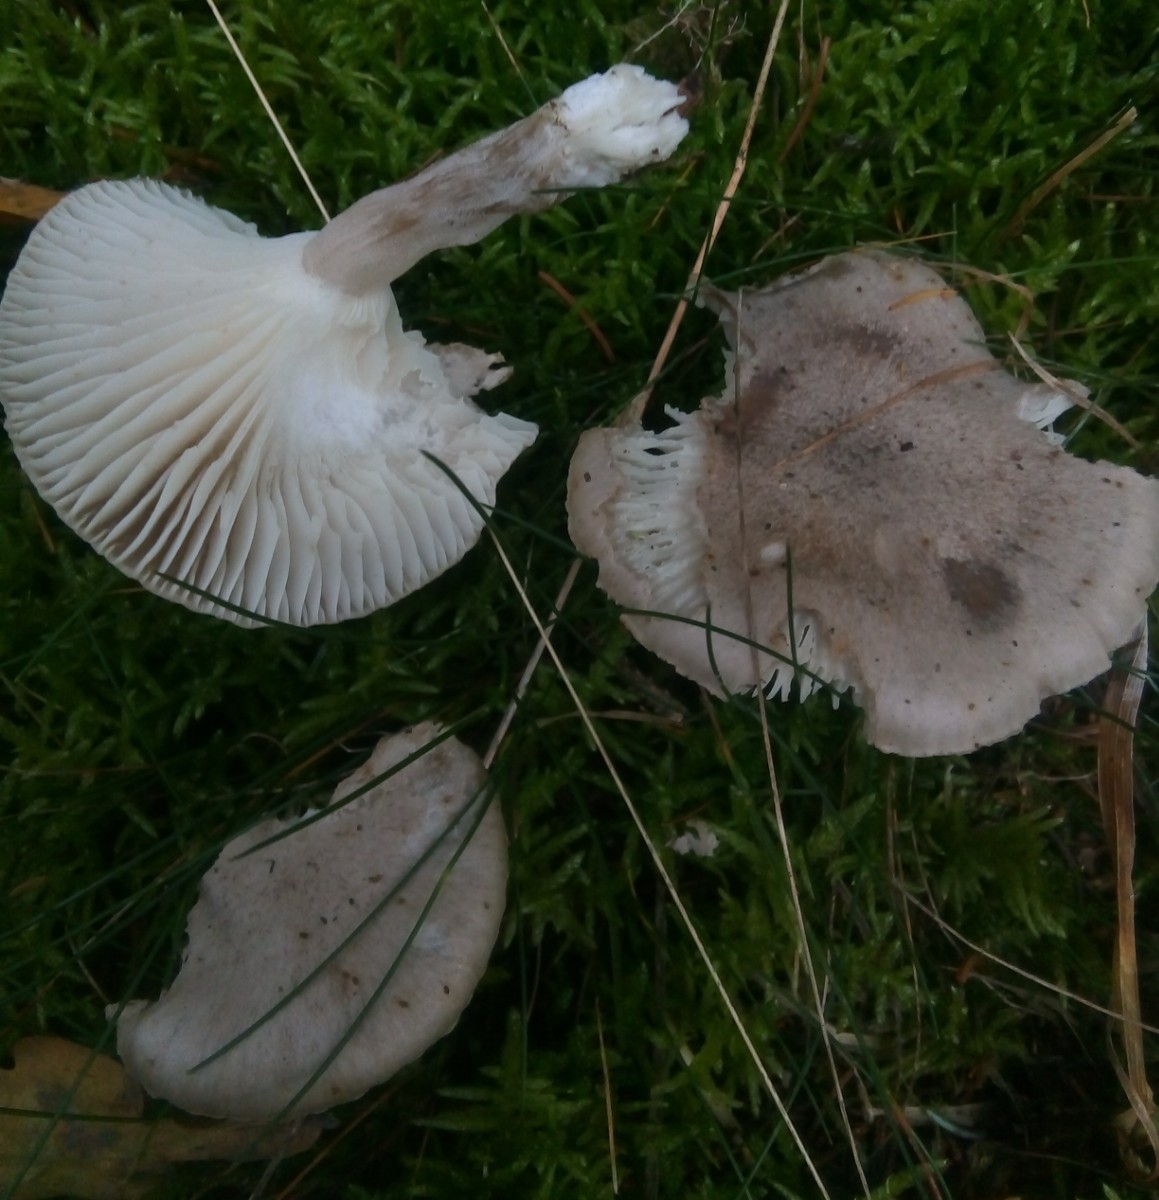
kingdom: Fungi
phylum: Basidiomycota
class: Agaricomycetes
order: Agaricales
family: Hygrophoraceae
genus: Hygrophorus
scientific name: Hygrophorus agathosmus
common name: vellugtende sneglehat
